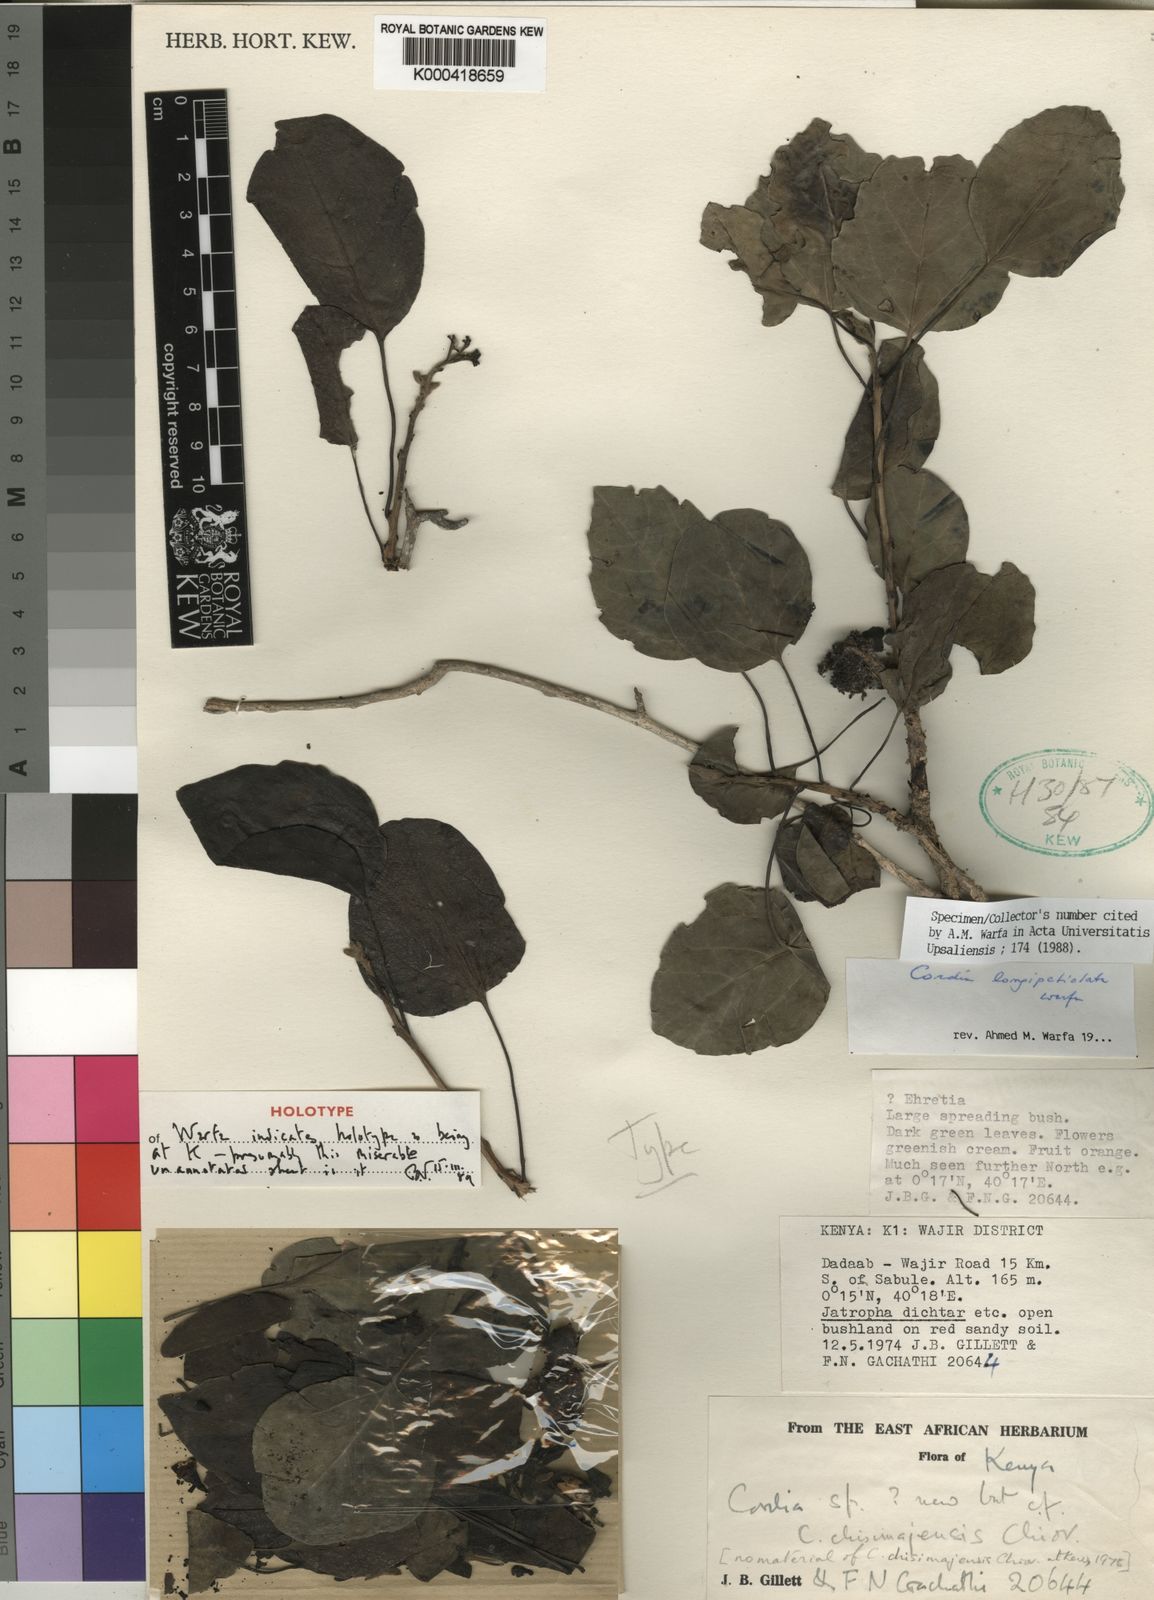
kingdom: Plantae
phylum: Tracheophyta
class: Magnoliopsida
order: Boraginales
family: Cordiaceae
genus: Cordia
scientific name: Cordia longipetiolata
